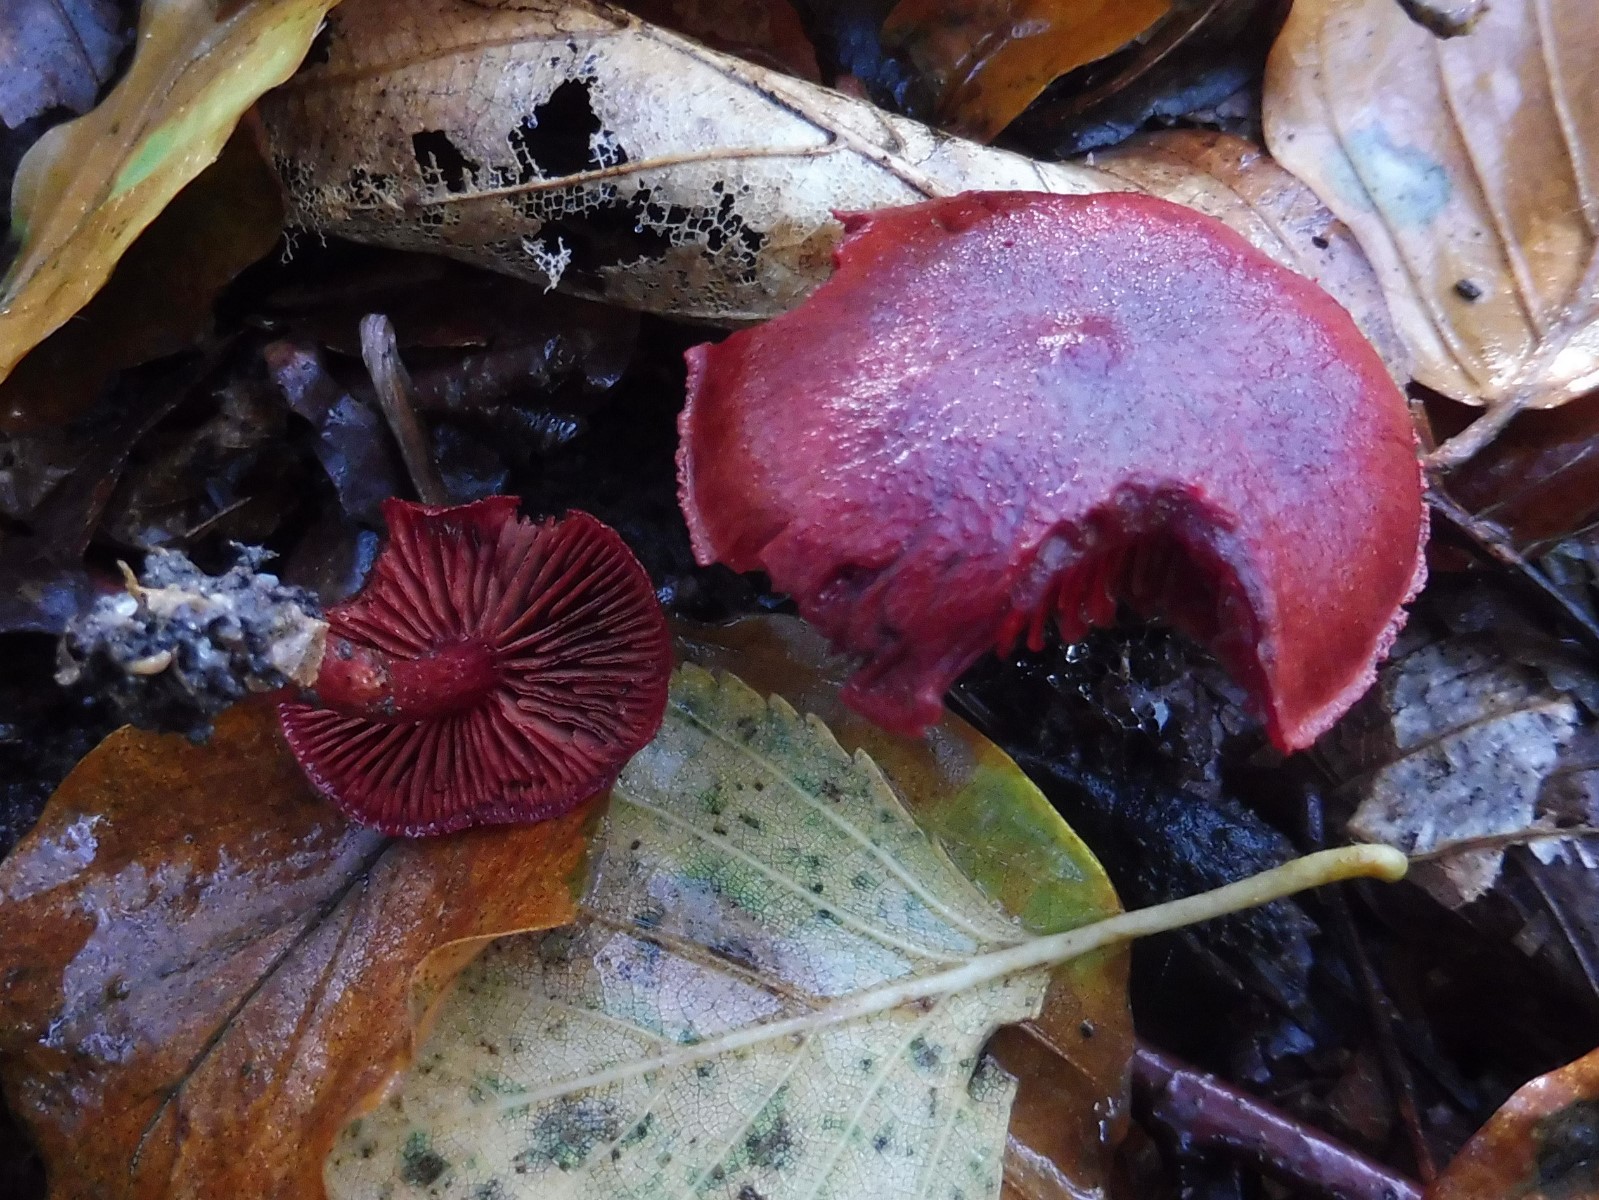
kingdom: Fungi
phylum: Basidiomycota
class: Agaricomycetes
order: Agaricales
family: Cortinariaceae
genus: Cortinarius
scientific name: Cortinarius sanguineus
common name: blodrød slørhat
